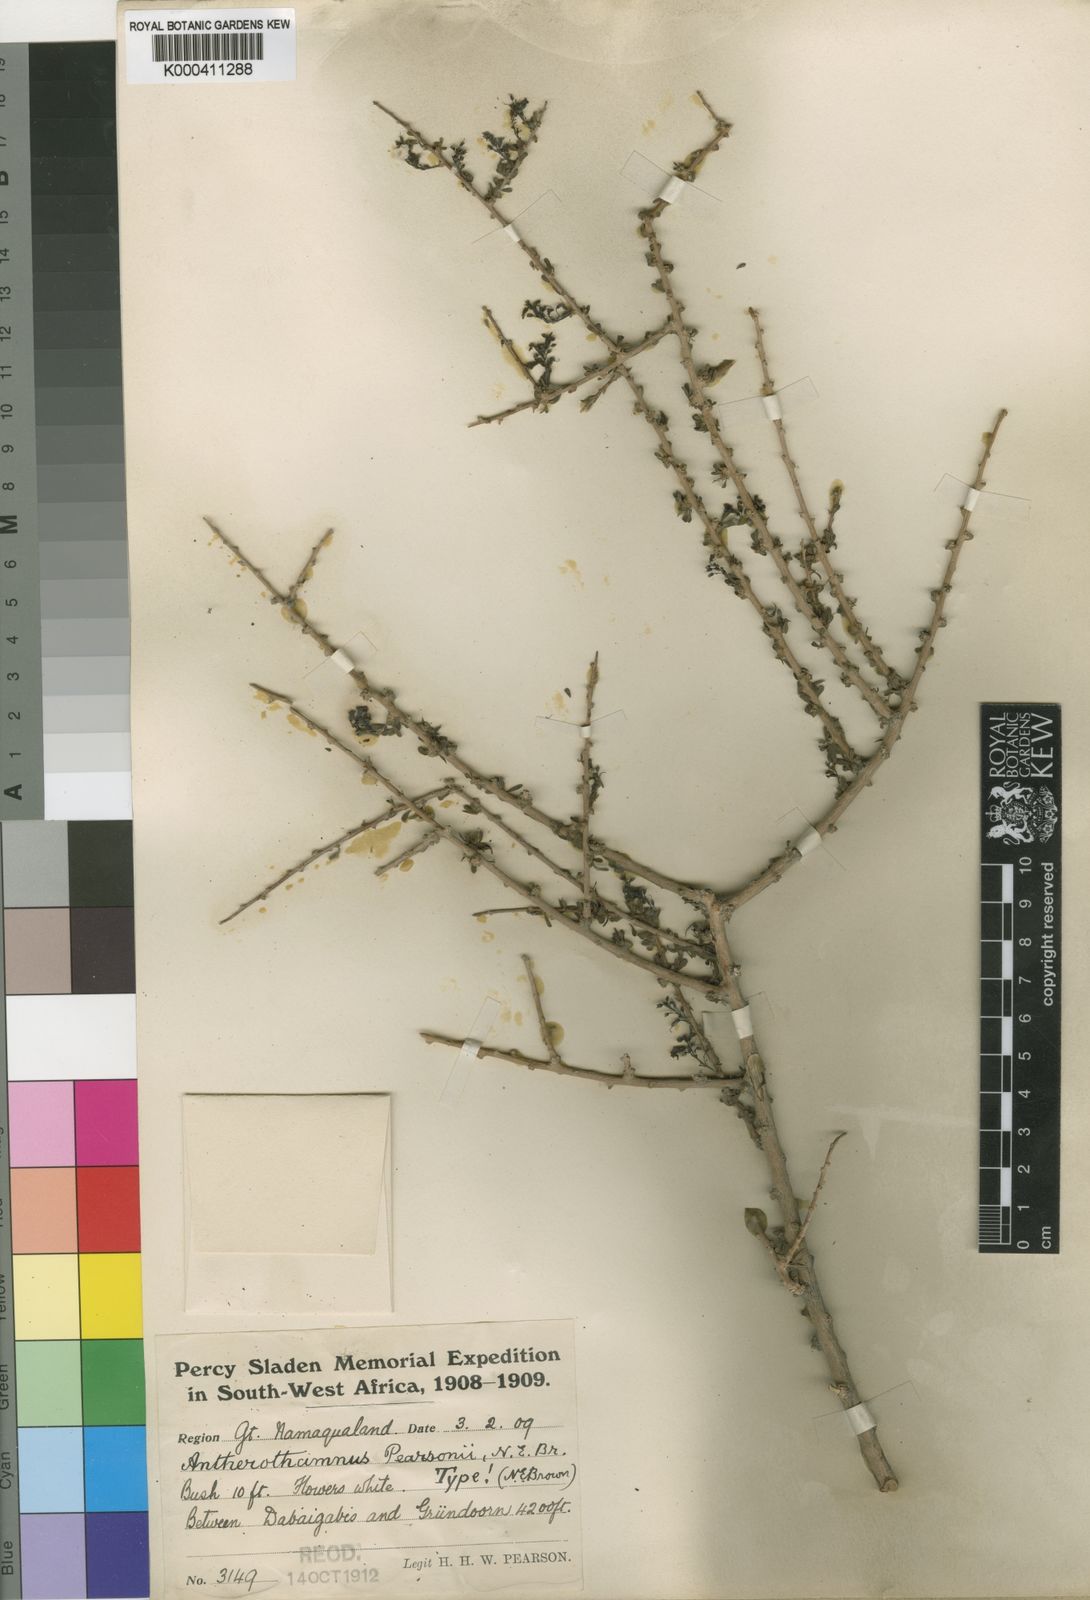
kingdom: Plantae
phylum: Tracheophyta
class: Magnoliopsida
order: Lamiales
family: Scrophulariaceae
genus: Antherothamnus
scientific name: Antherothamnus pearsonii
